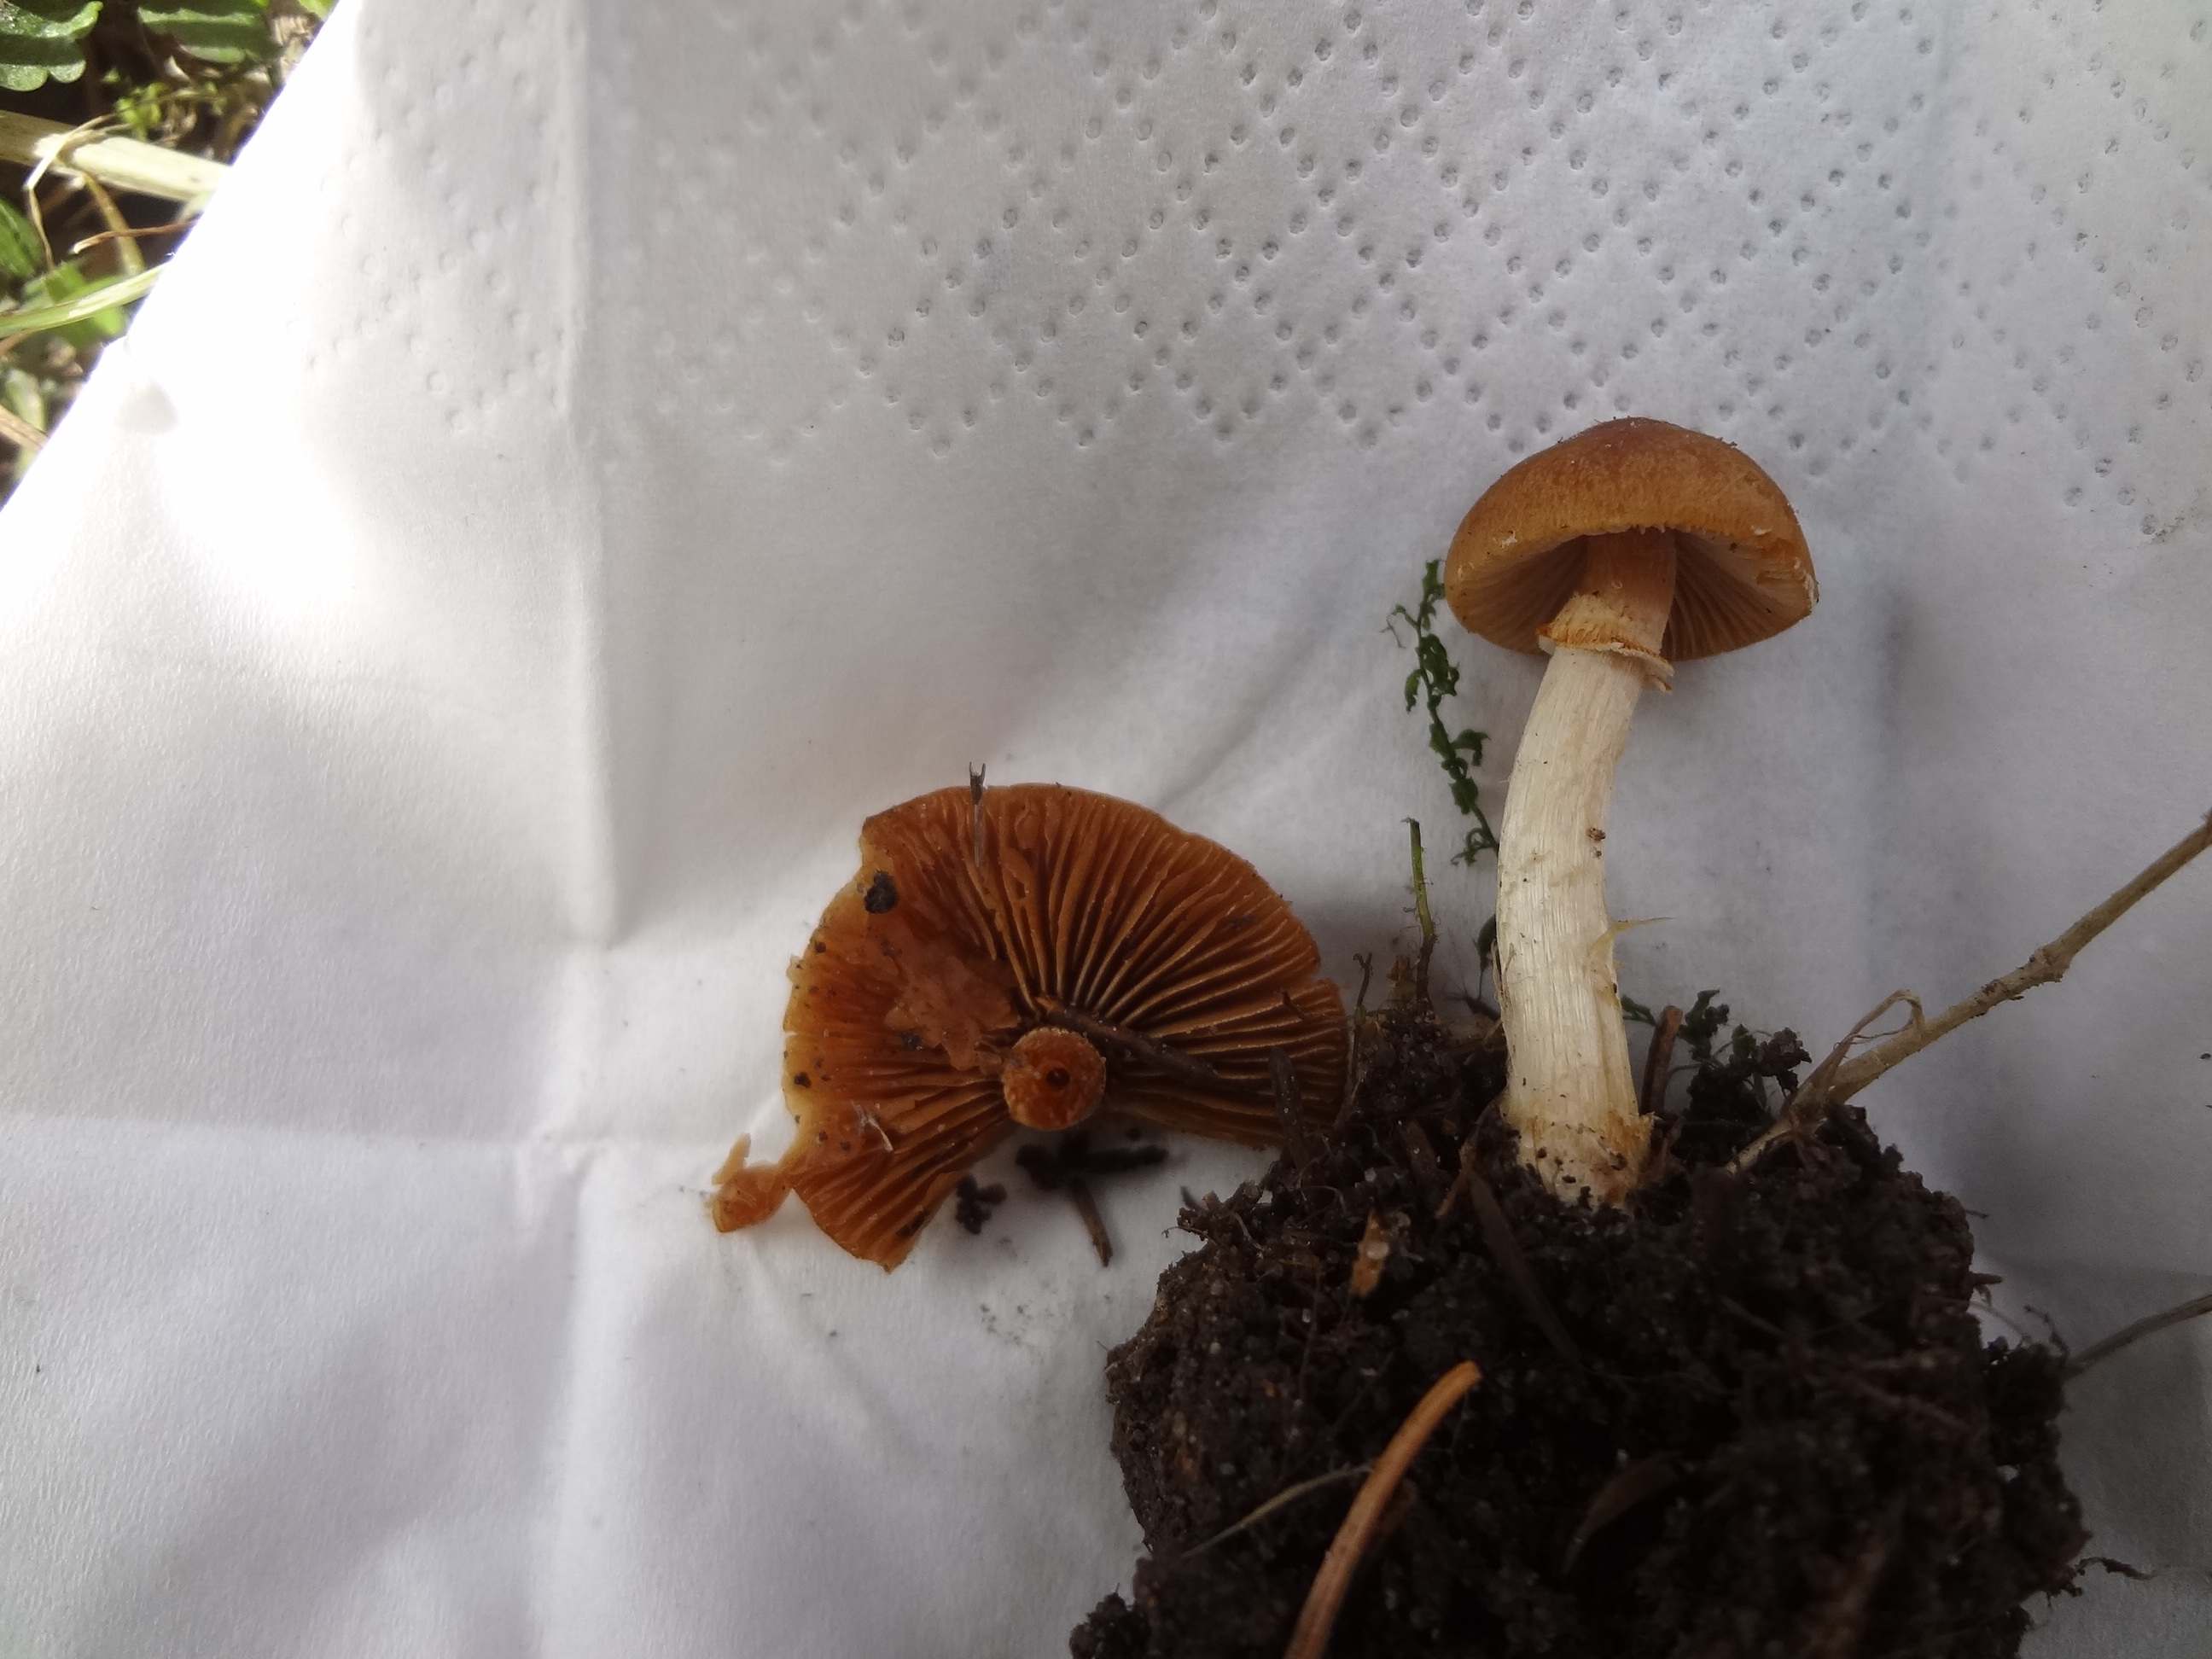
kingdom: Fungi
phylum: Basidiomycota
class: Agaricomycetes
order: Agaricales
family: Bolbitiaceae
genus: Conocybe
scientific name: Conocybe aporos
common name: tidlig dansehat
